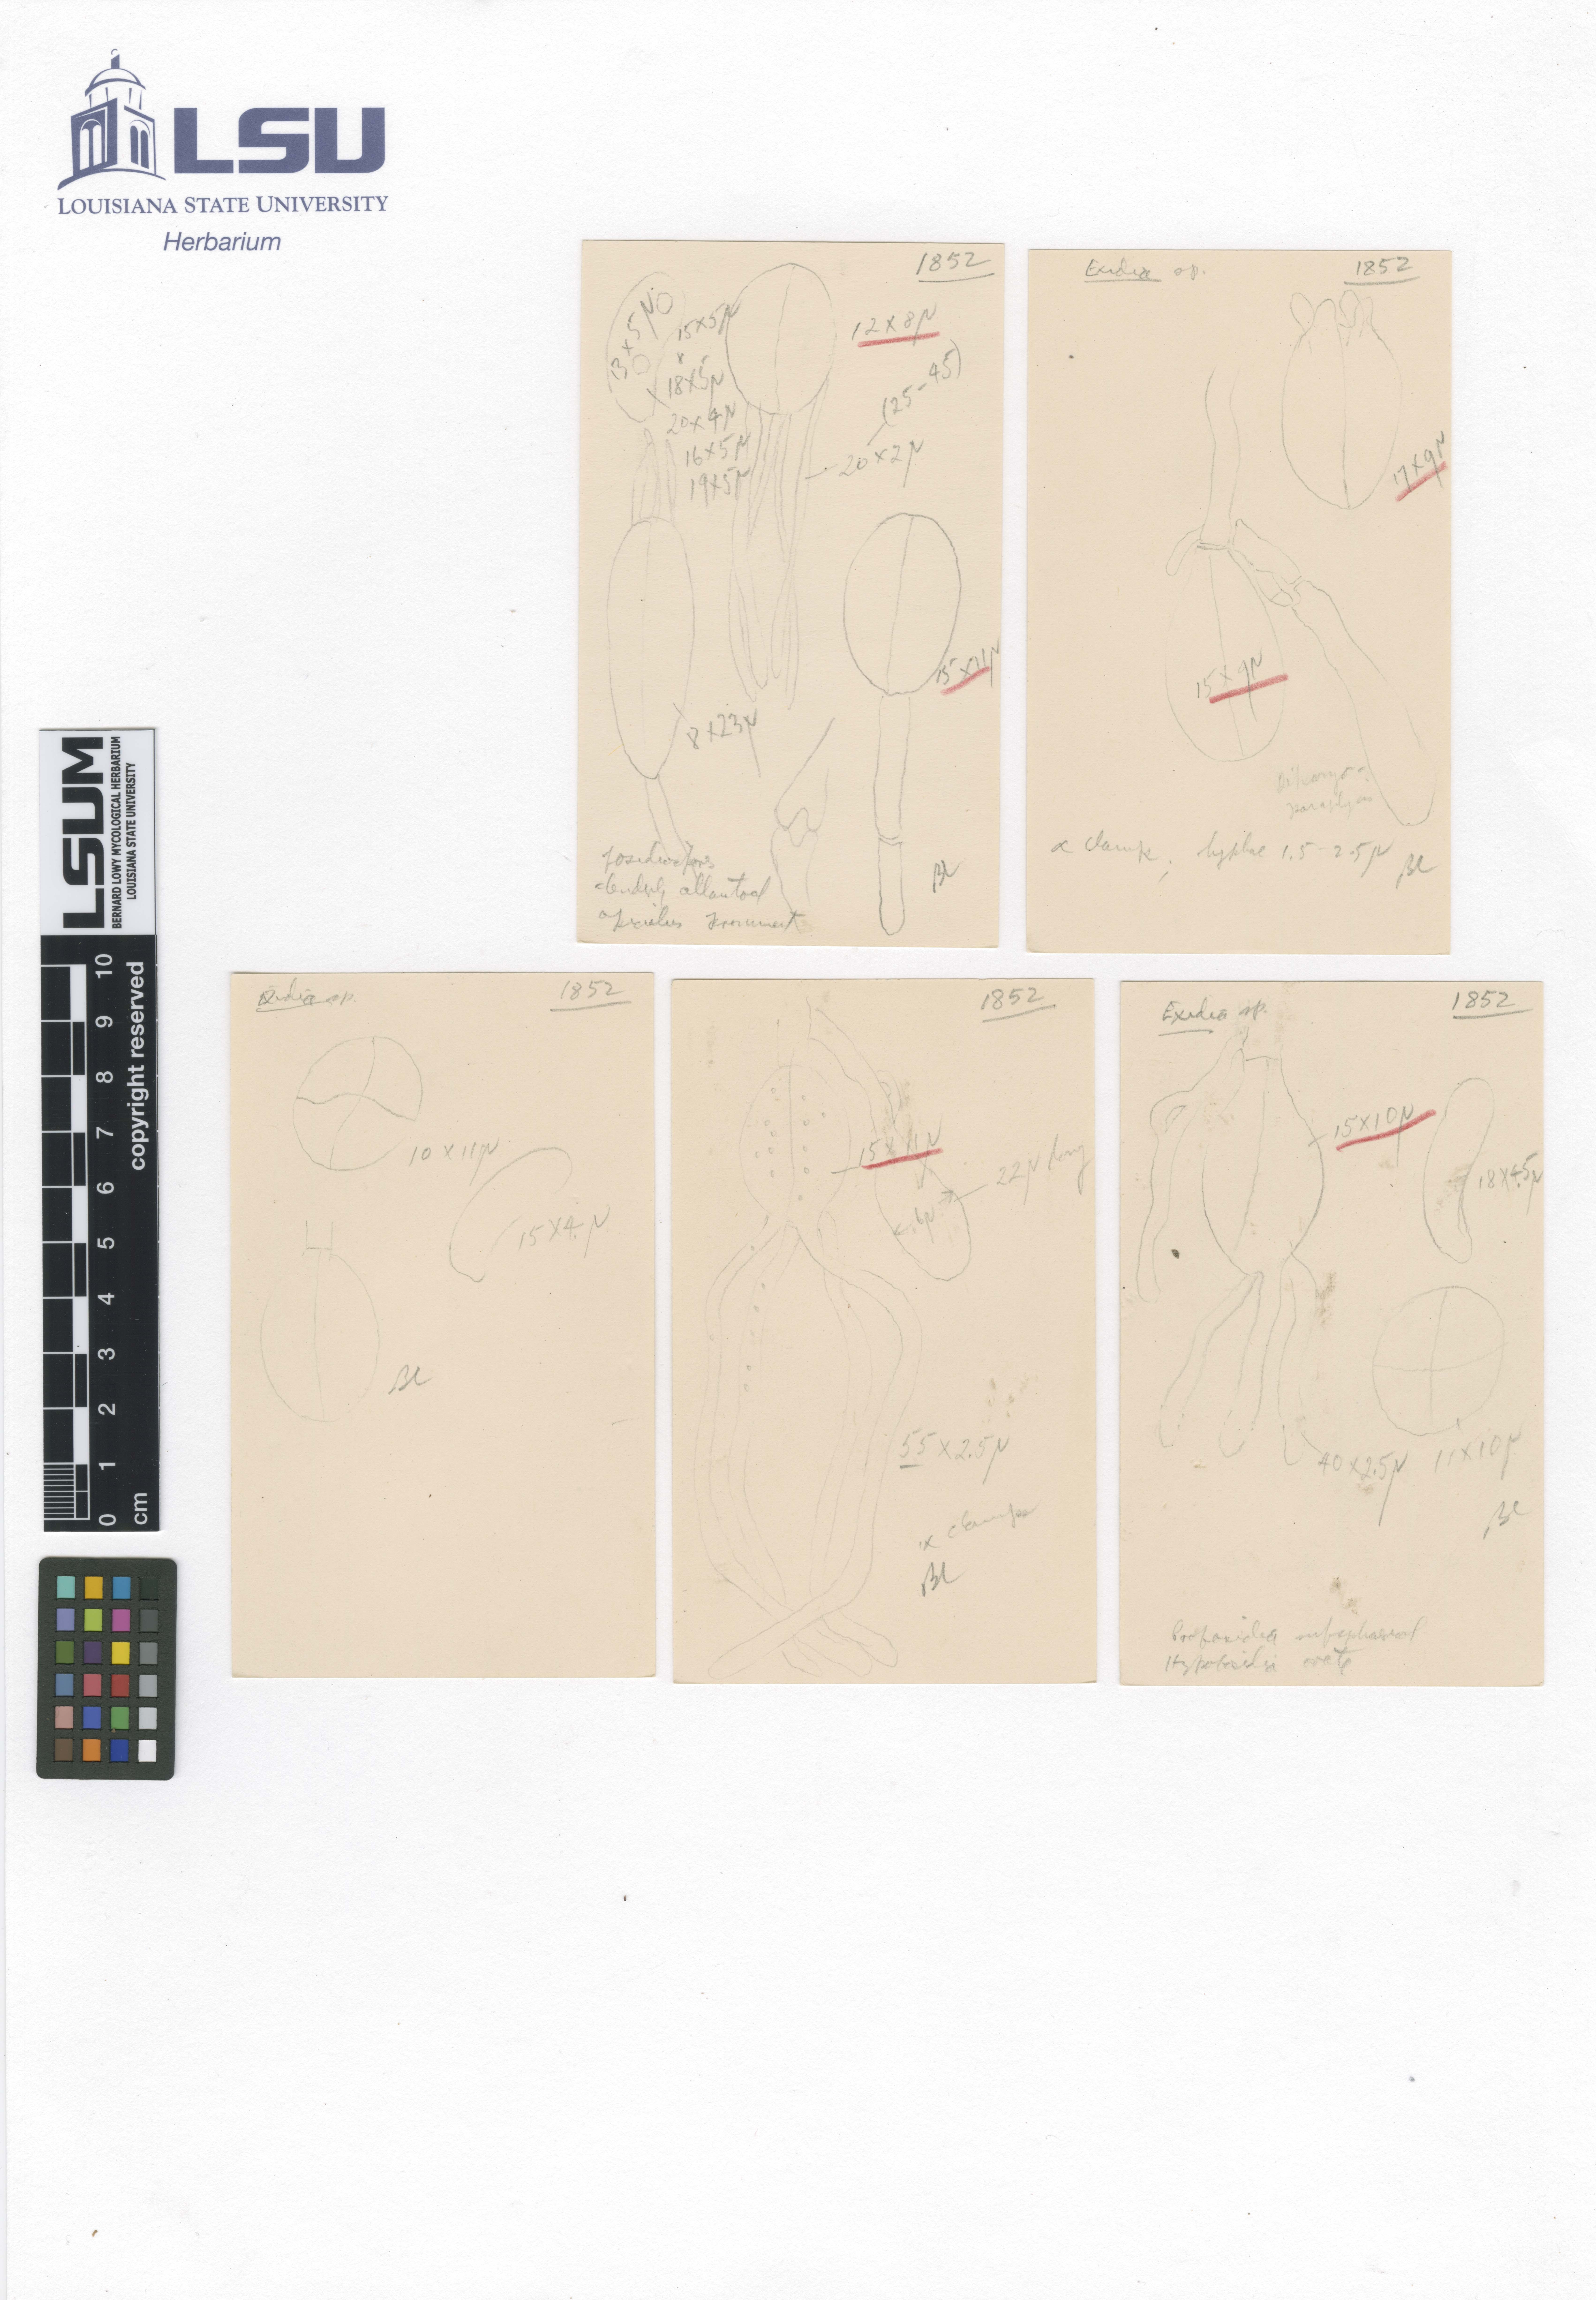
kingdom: Fungi
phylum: Basidiomycota
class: Agaricomycetes
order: Auriculariales
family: Auriculariaceae
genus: Exidia
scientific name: Exidia compacta
